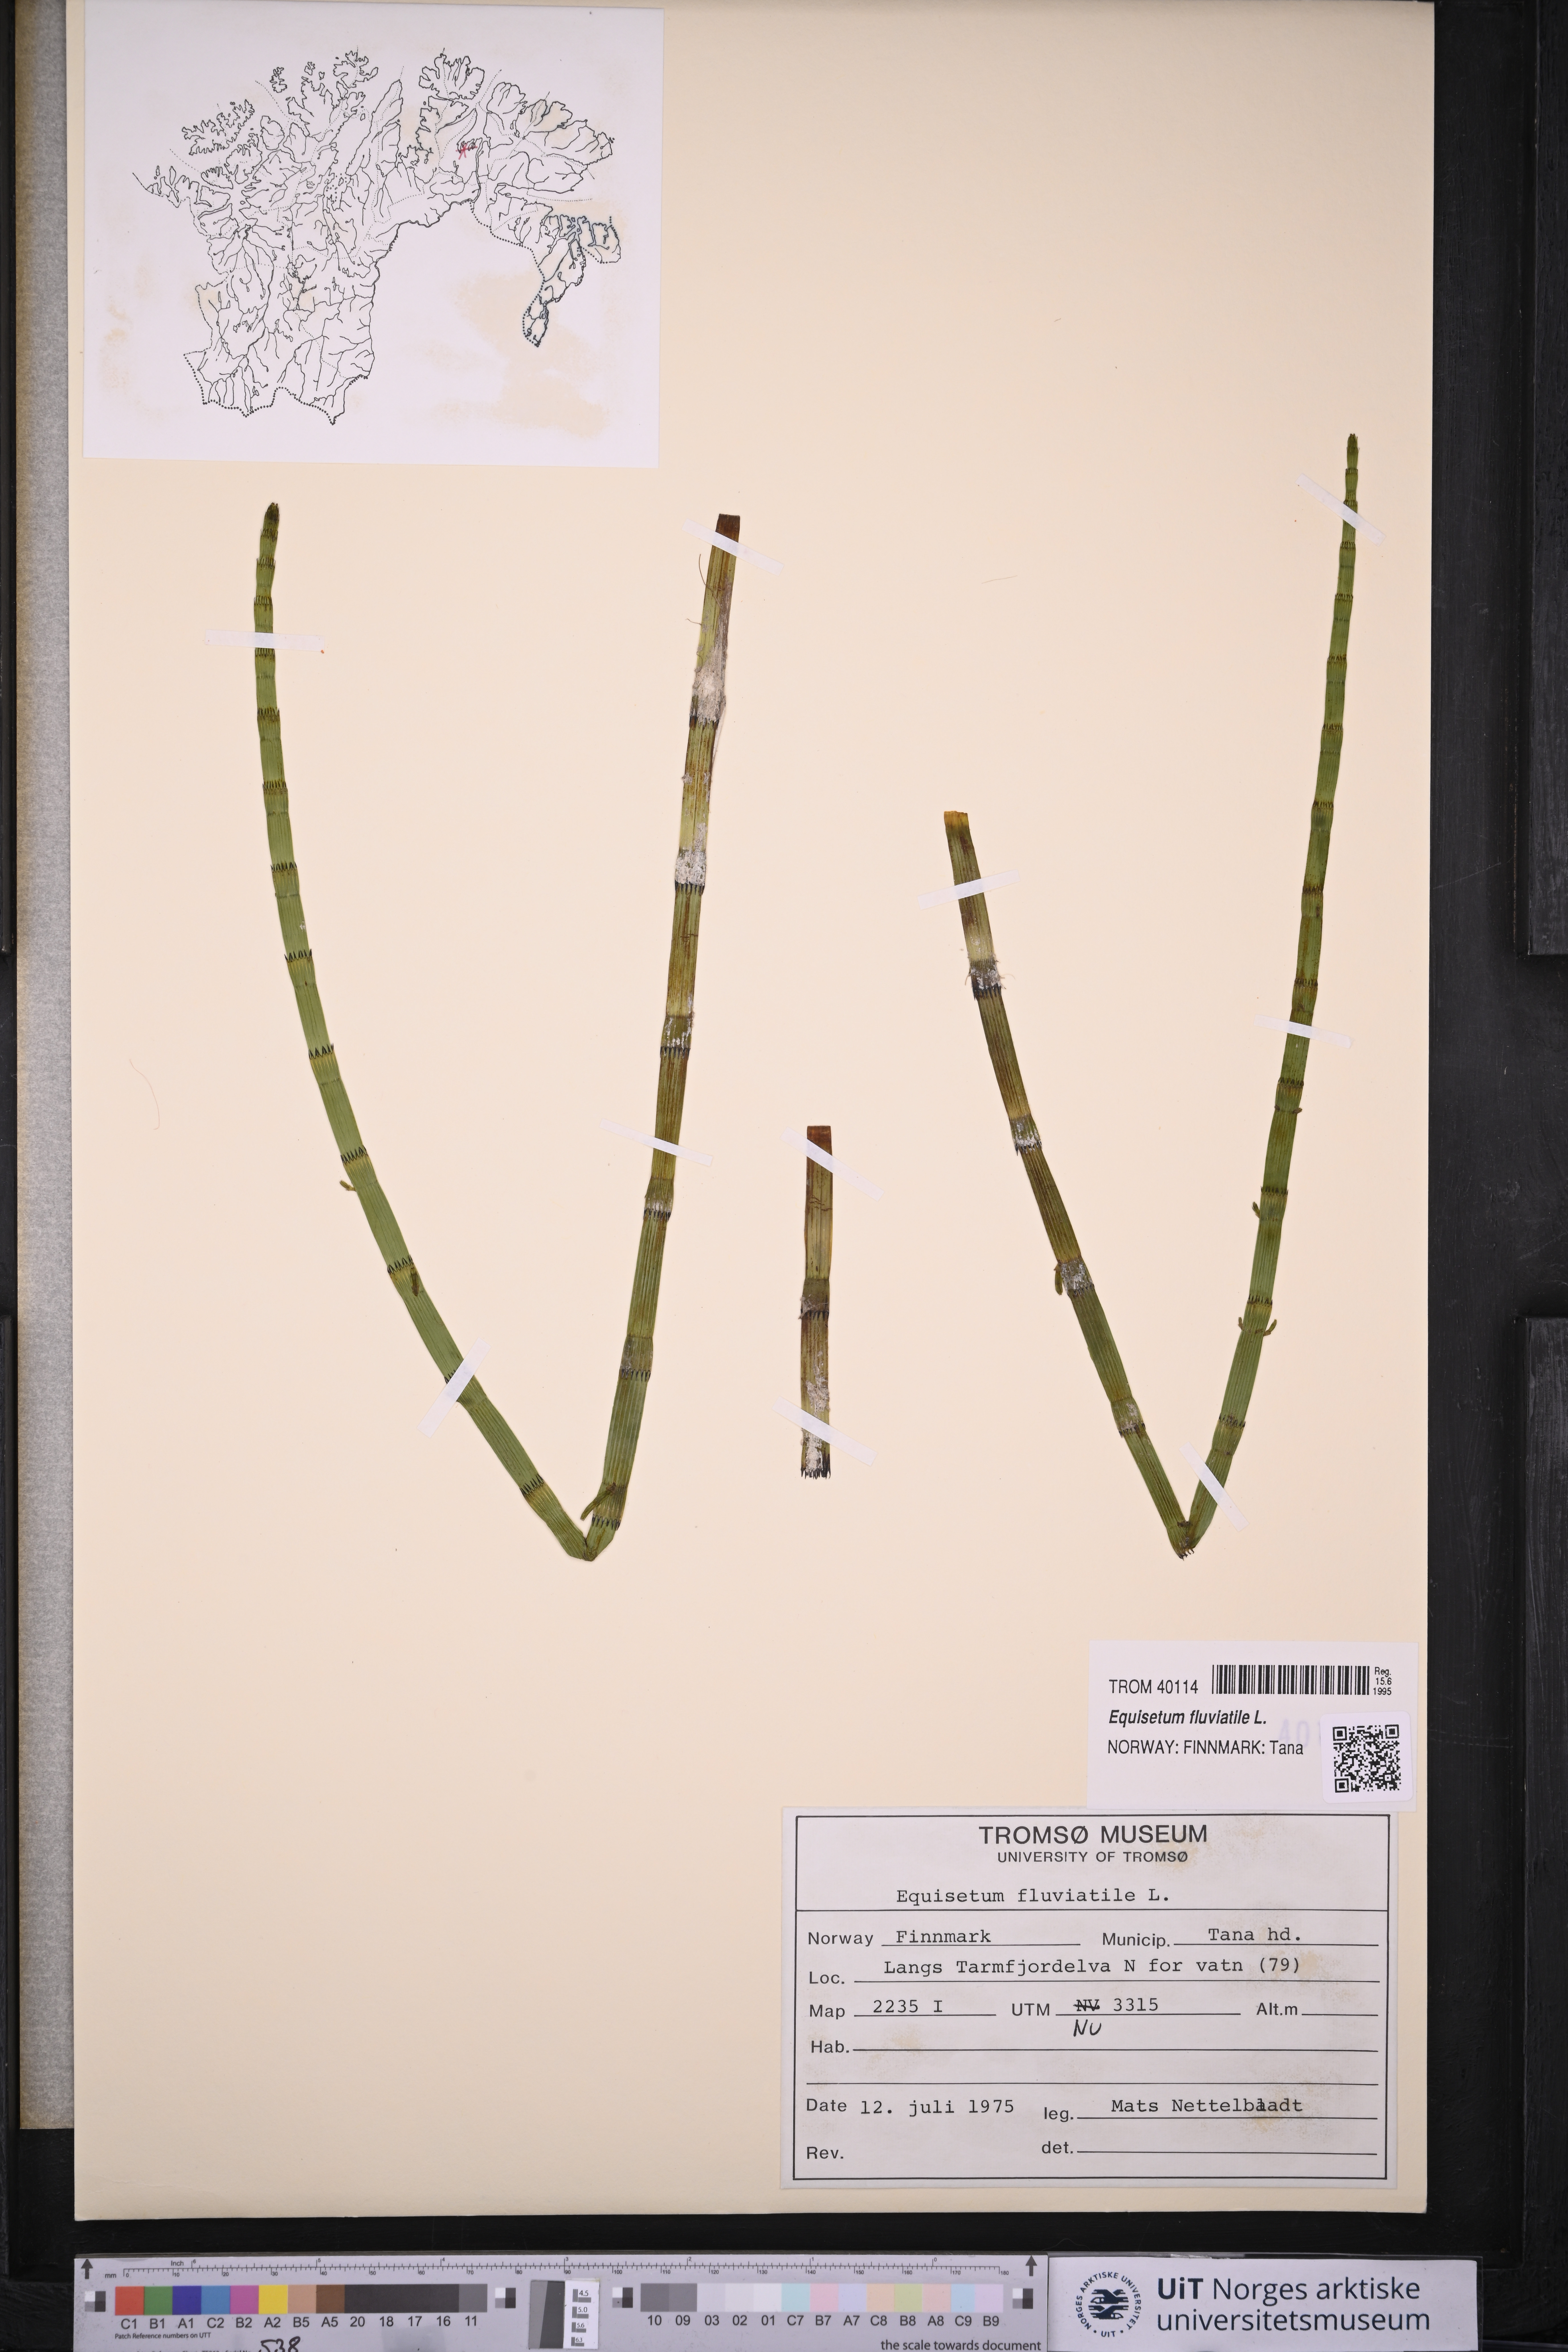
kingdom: Plantae
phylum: Tracheophyta
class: Polypodiopsida
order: Equisetales
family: Equisetaceae
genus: Equisetum
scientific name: Equisetum fluviatile
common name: Water horsetail
